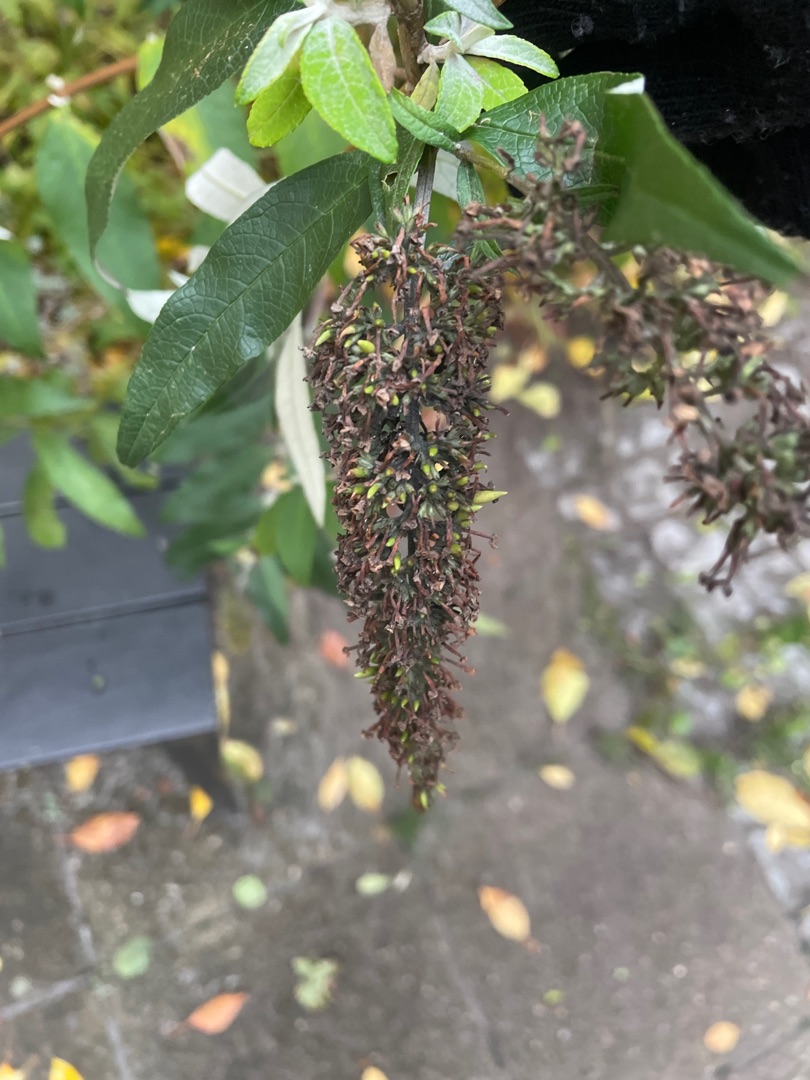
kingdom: Plantae
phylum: Tracheophyta
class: Magnoliopsida
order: Lamiales
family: Scrophulariaceae
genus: Buddleja
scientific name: Buddleja davidii
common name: Sommerfuglebusk
